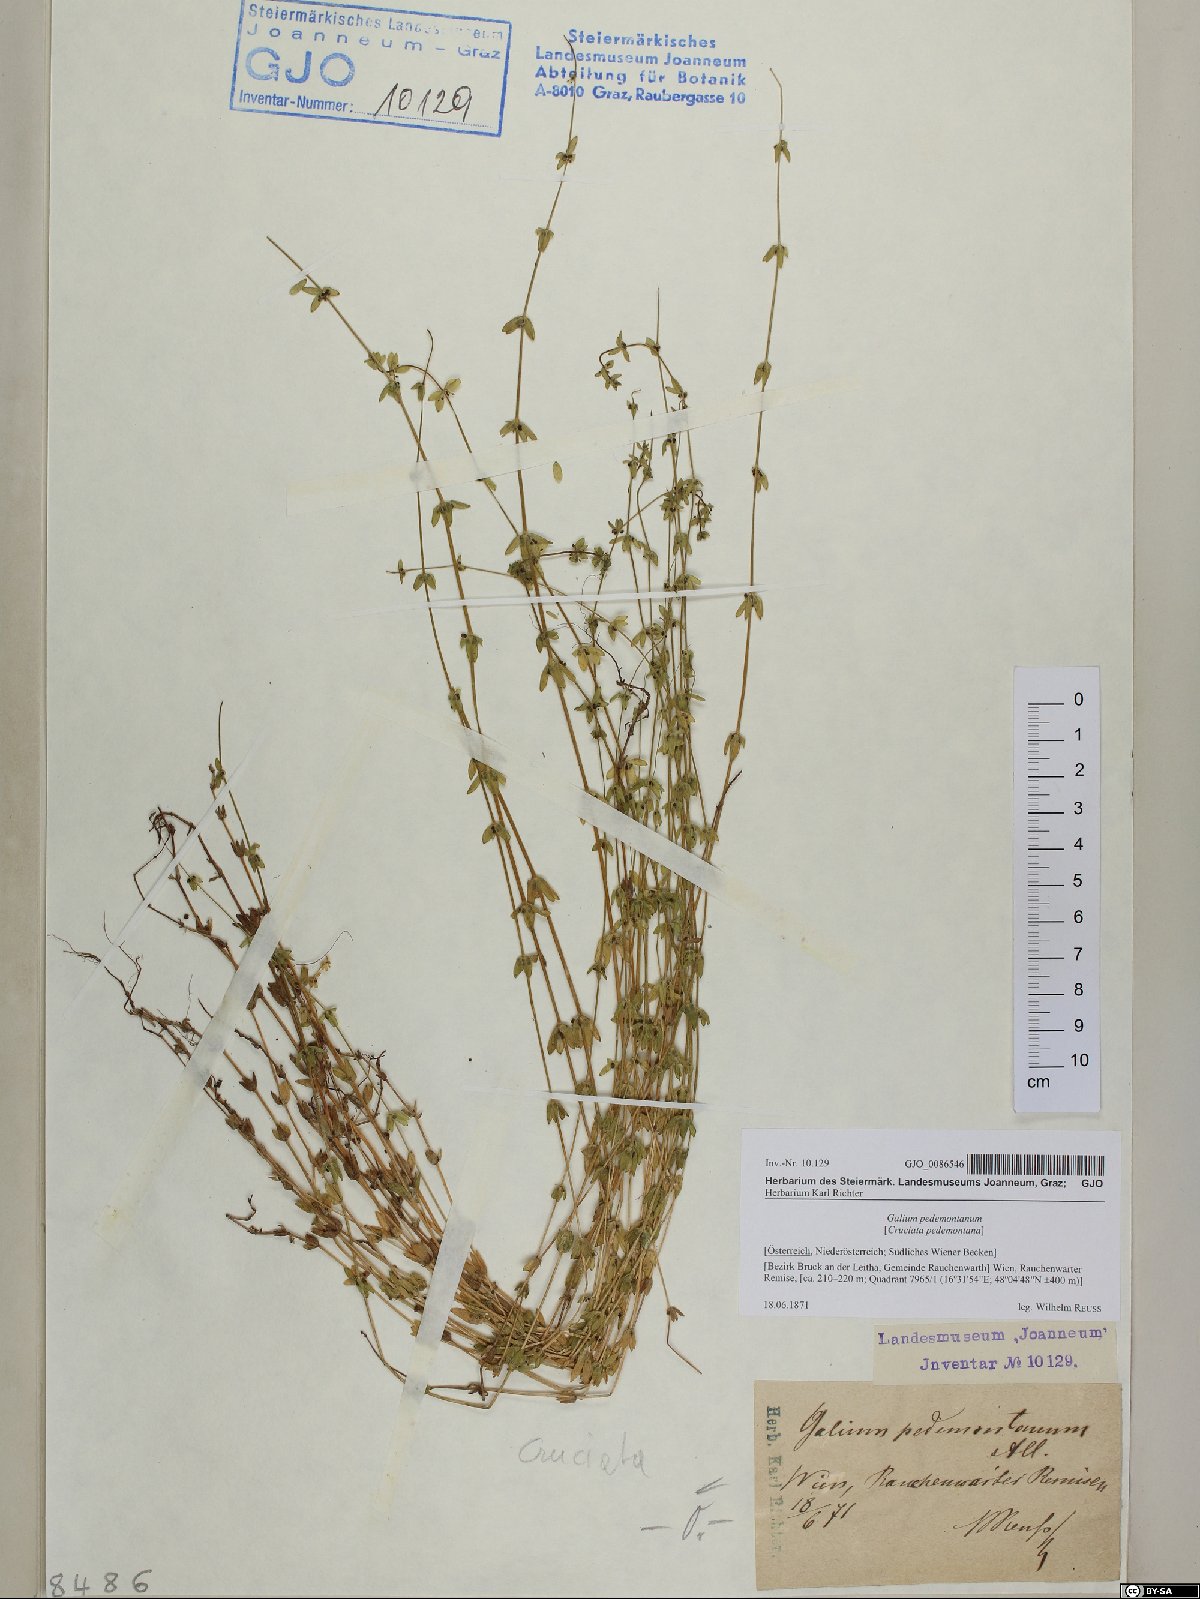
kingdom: Plantae
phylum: Tracheophyta
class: Magnoliopsida
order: Gentianales
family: Rubiaceae
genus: Cruciata
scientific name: Cruciata pedemontana
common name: Piedmont bedstraw
